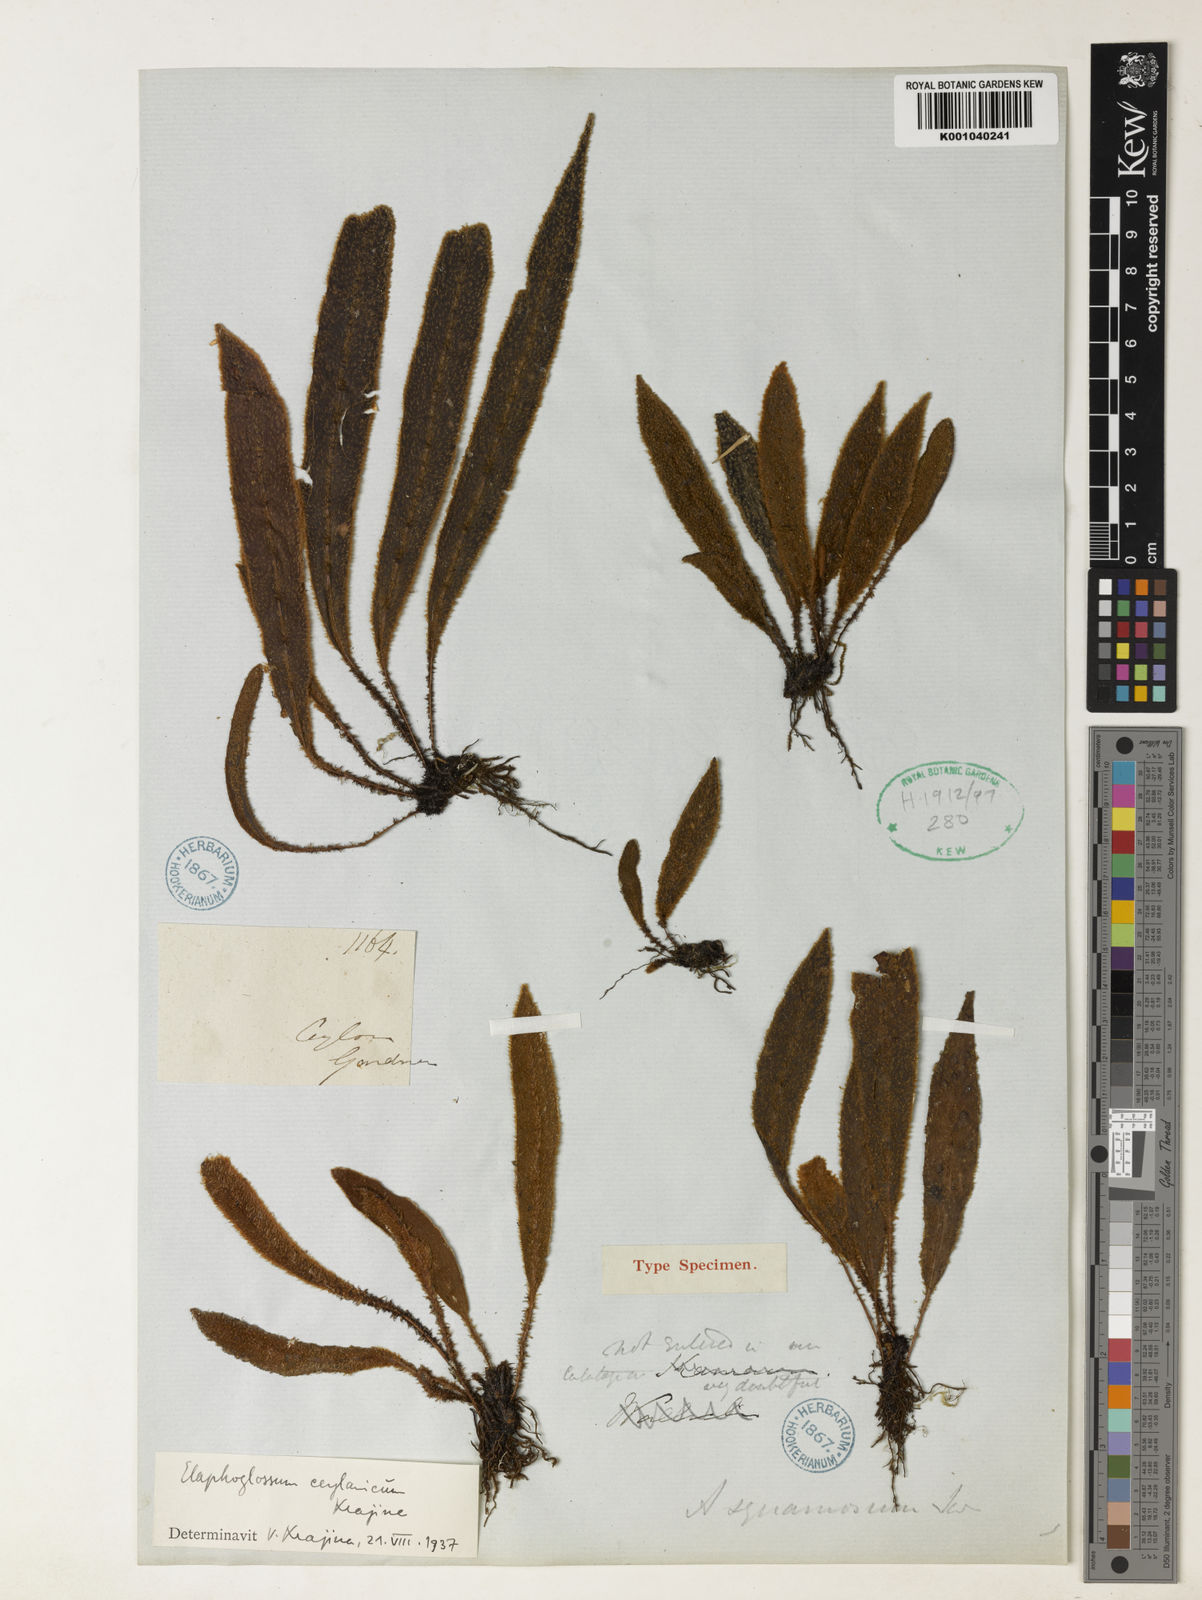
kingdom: Plantae
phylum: Tracheophyta
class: Polypodiopsida
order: Polypodiales
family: Dryopteridaceae
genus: Elaphoglossum
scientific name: Elaphoglossum ceylanicum
